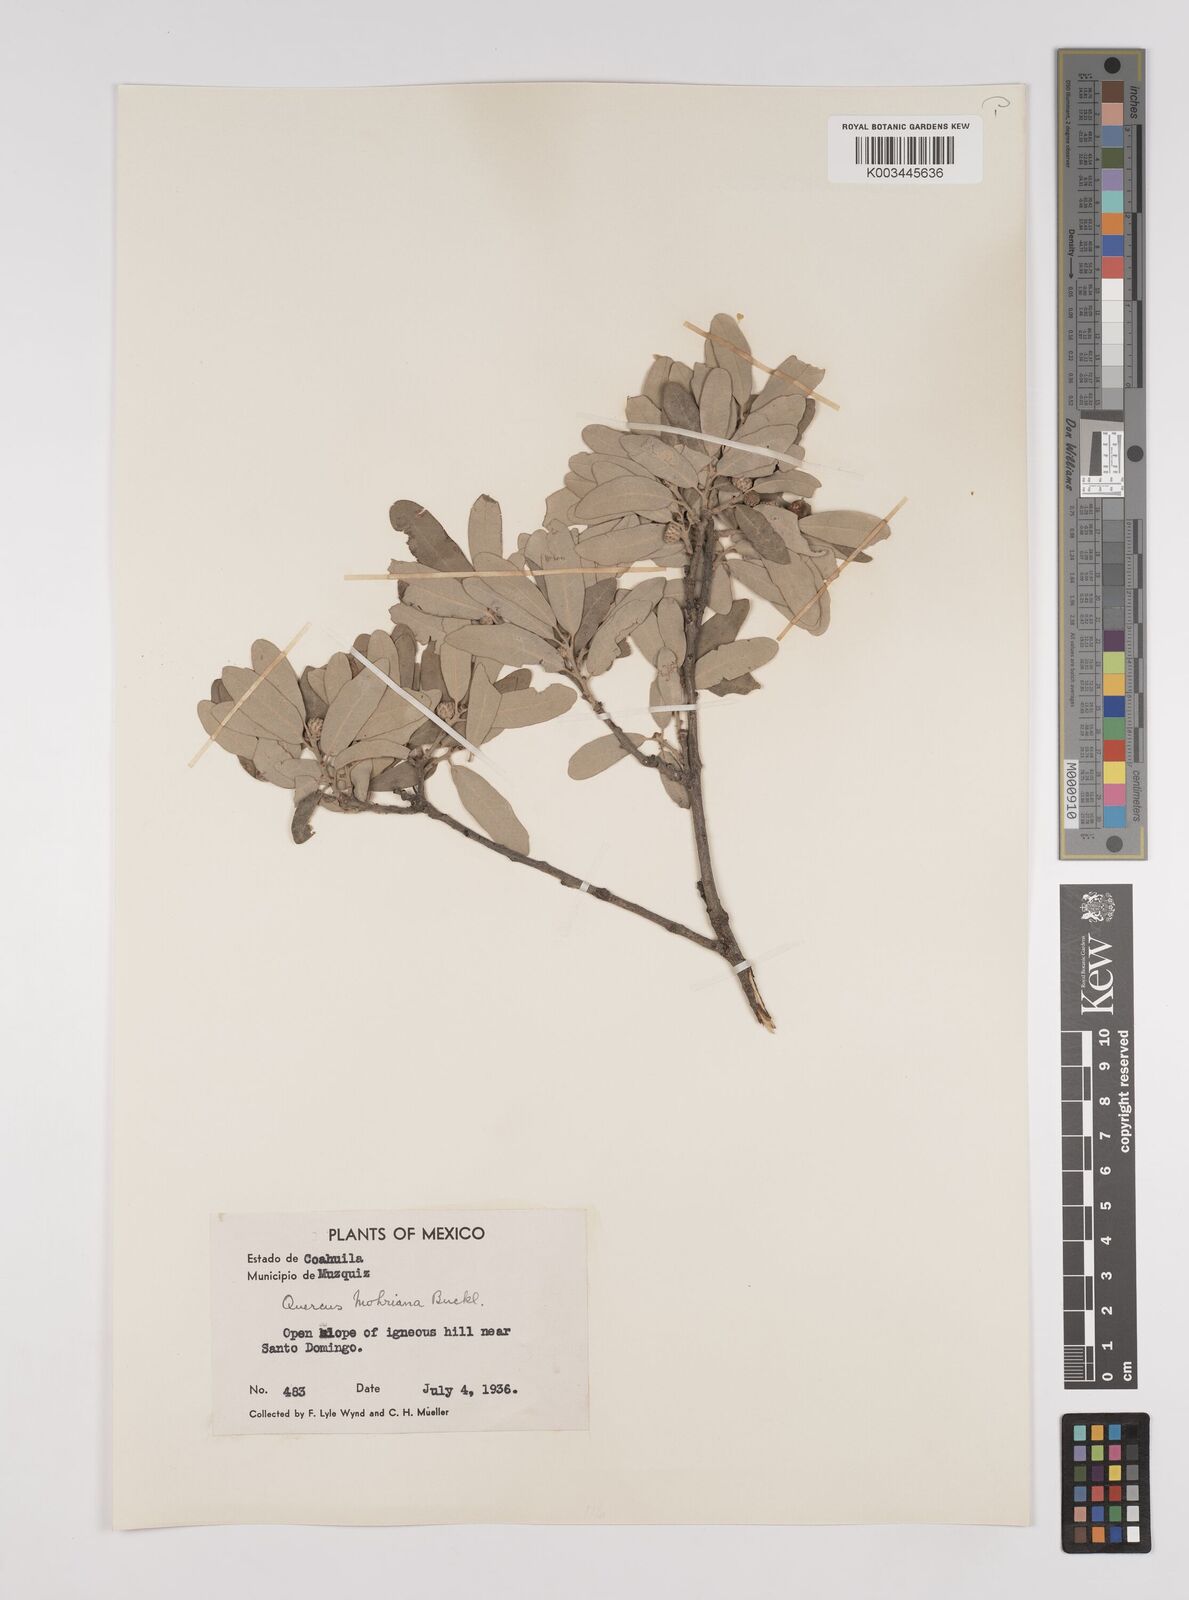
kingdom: Plantae
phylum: Tracheophyta
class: Magnoliopsida
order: Fagales
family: Fagaceae
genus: Quercus
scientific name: Quercus mohriana
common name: Mohr oak
